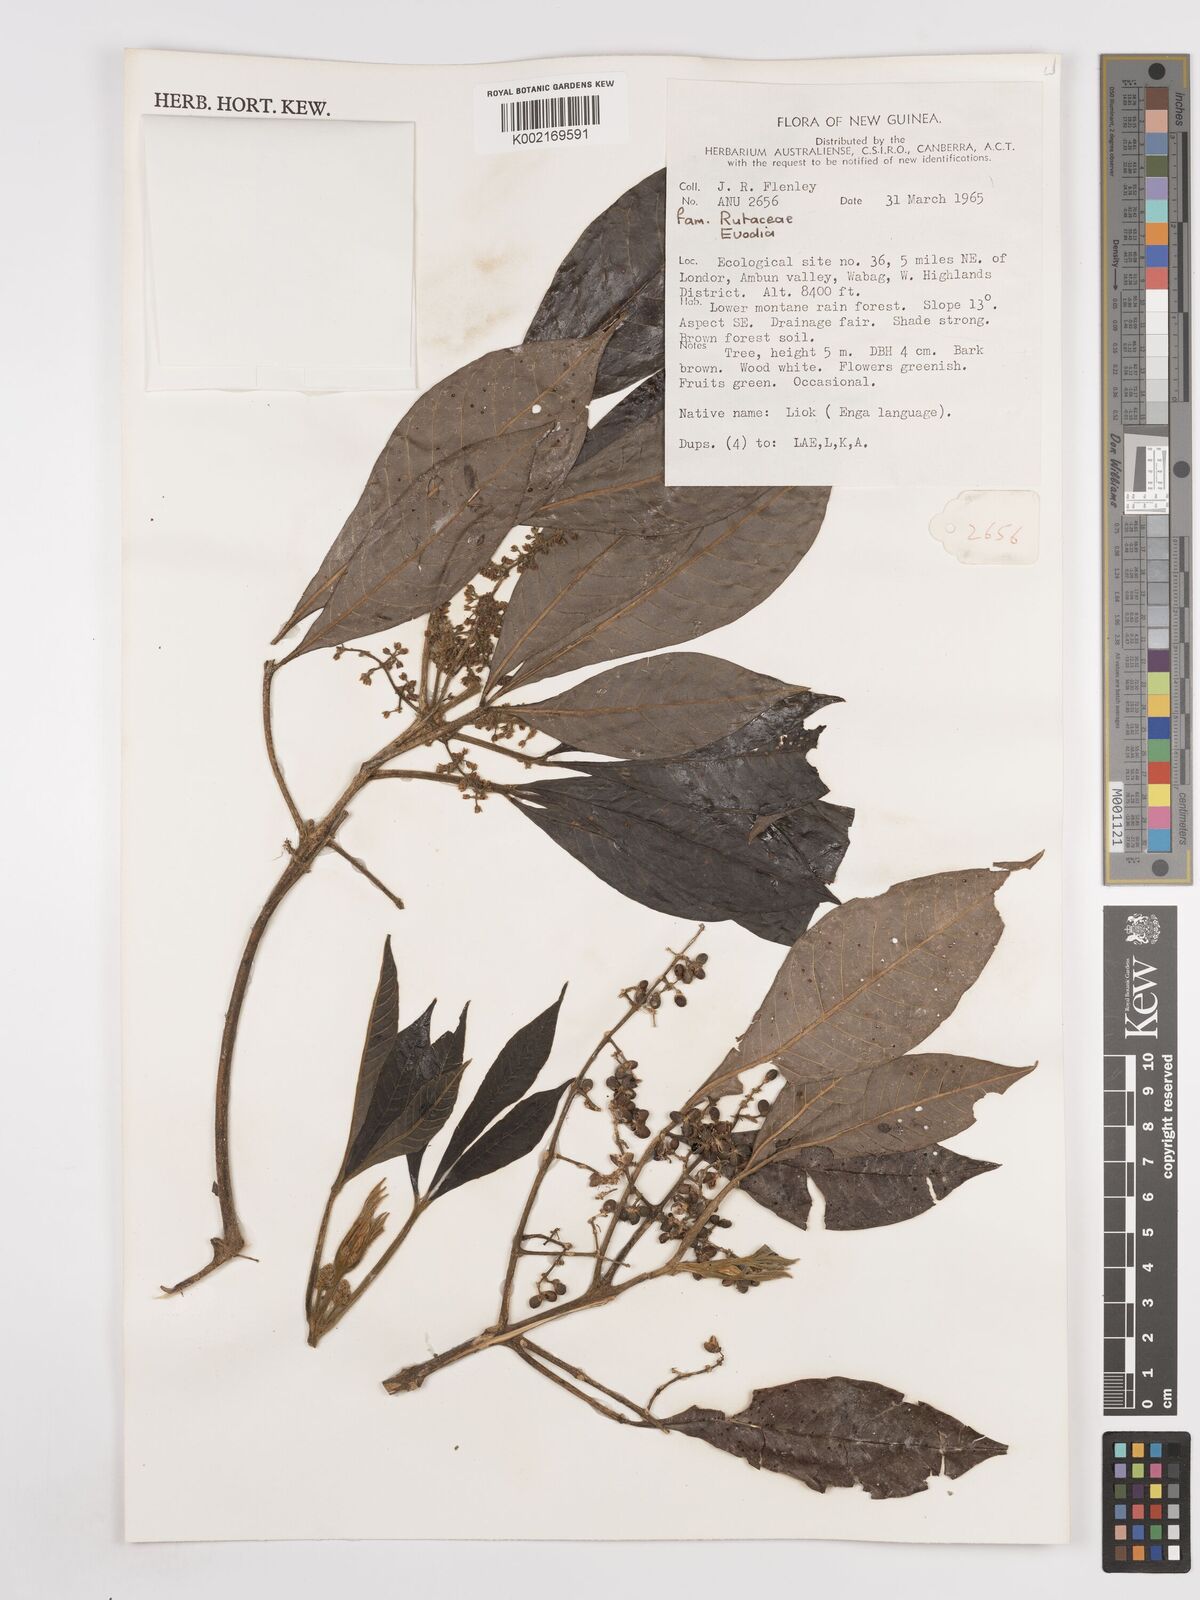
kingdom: Plantae
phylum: Tracheophyta
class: Magnoliopsida
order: Sapindales
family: Rutaceae
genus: Euodia
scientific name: Euodia
